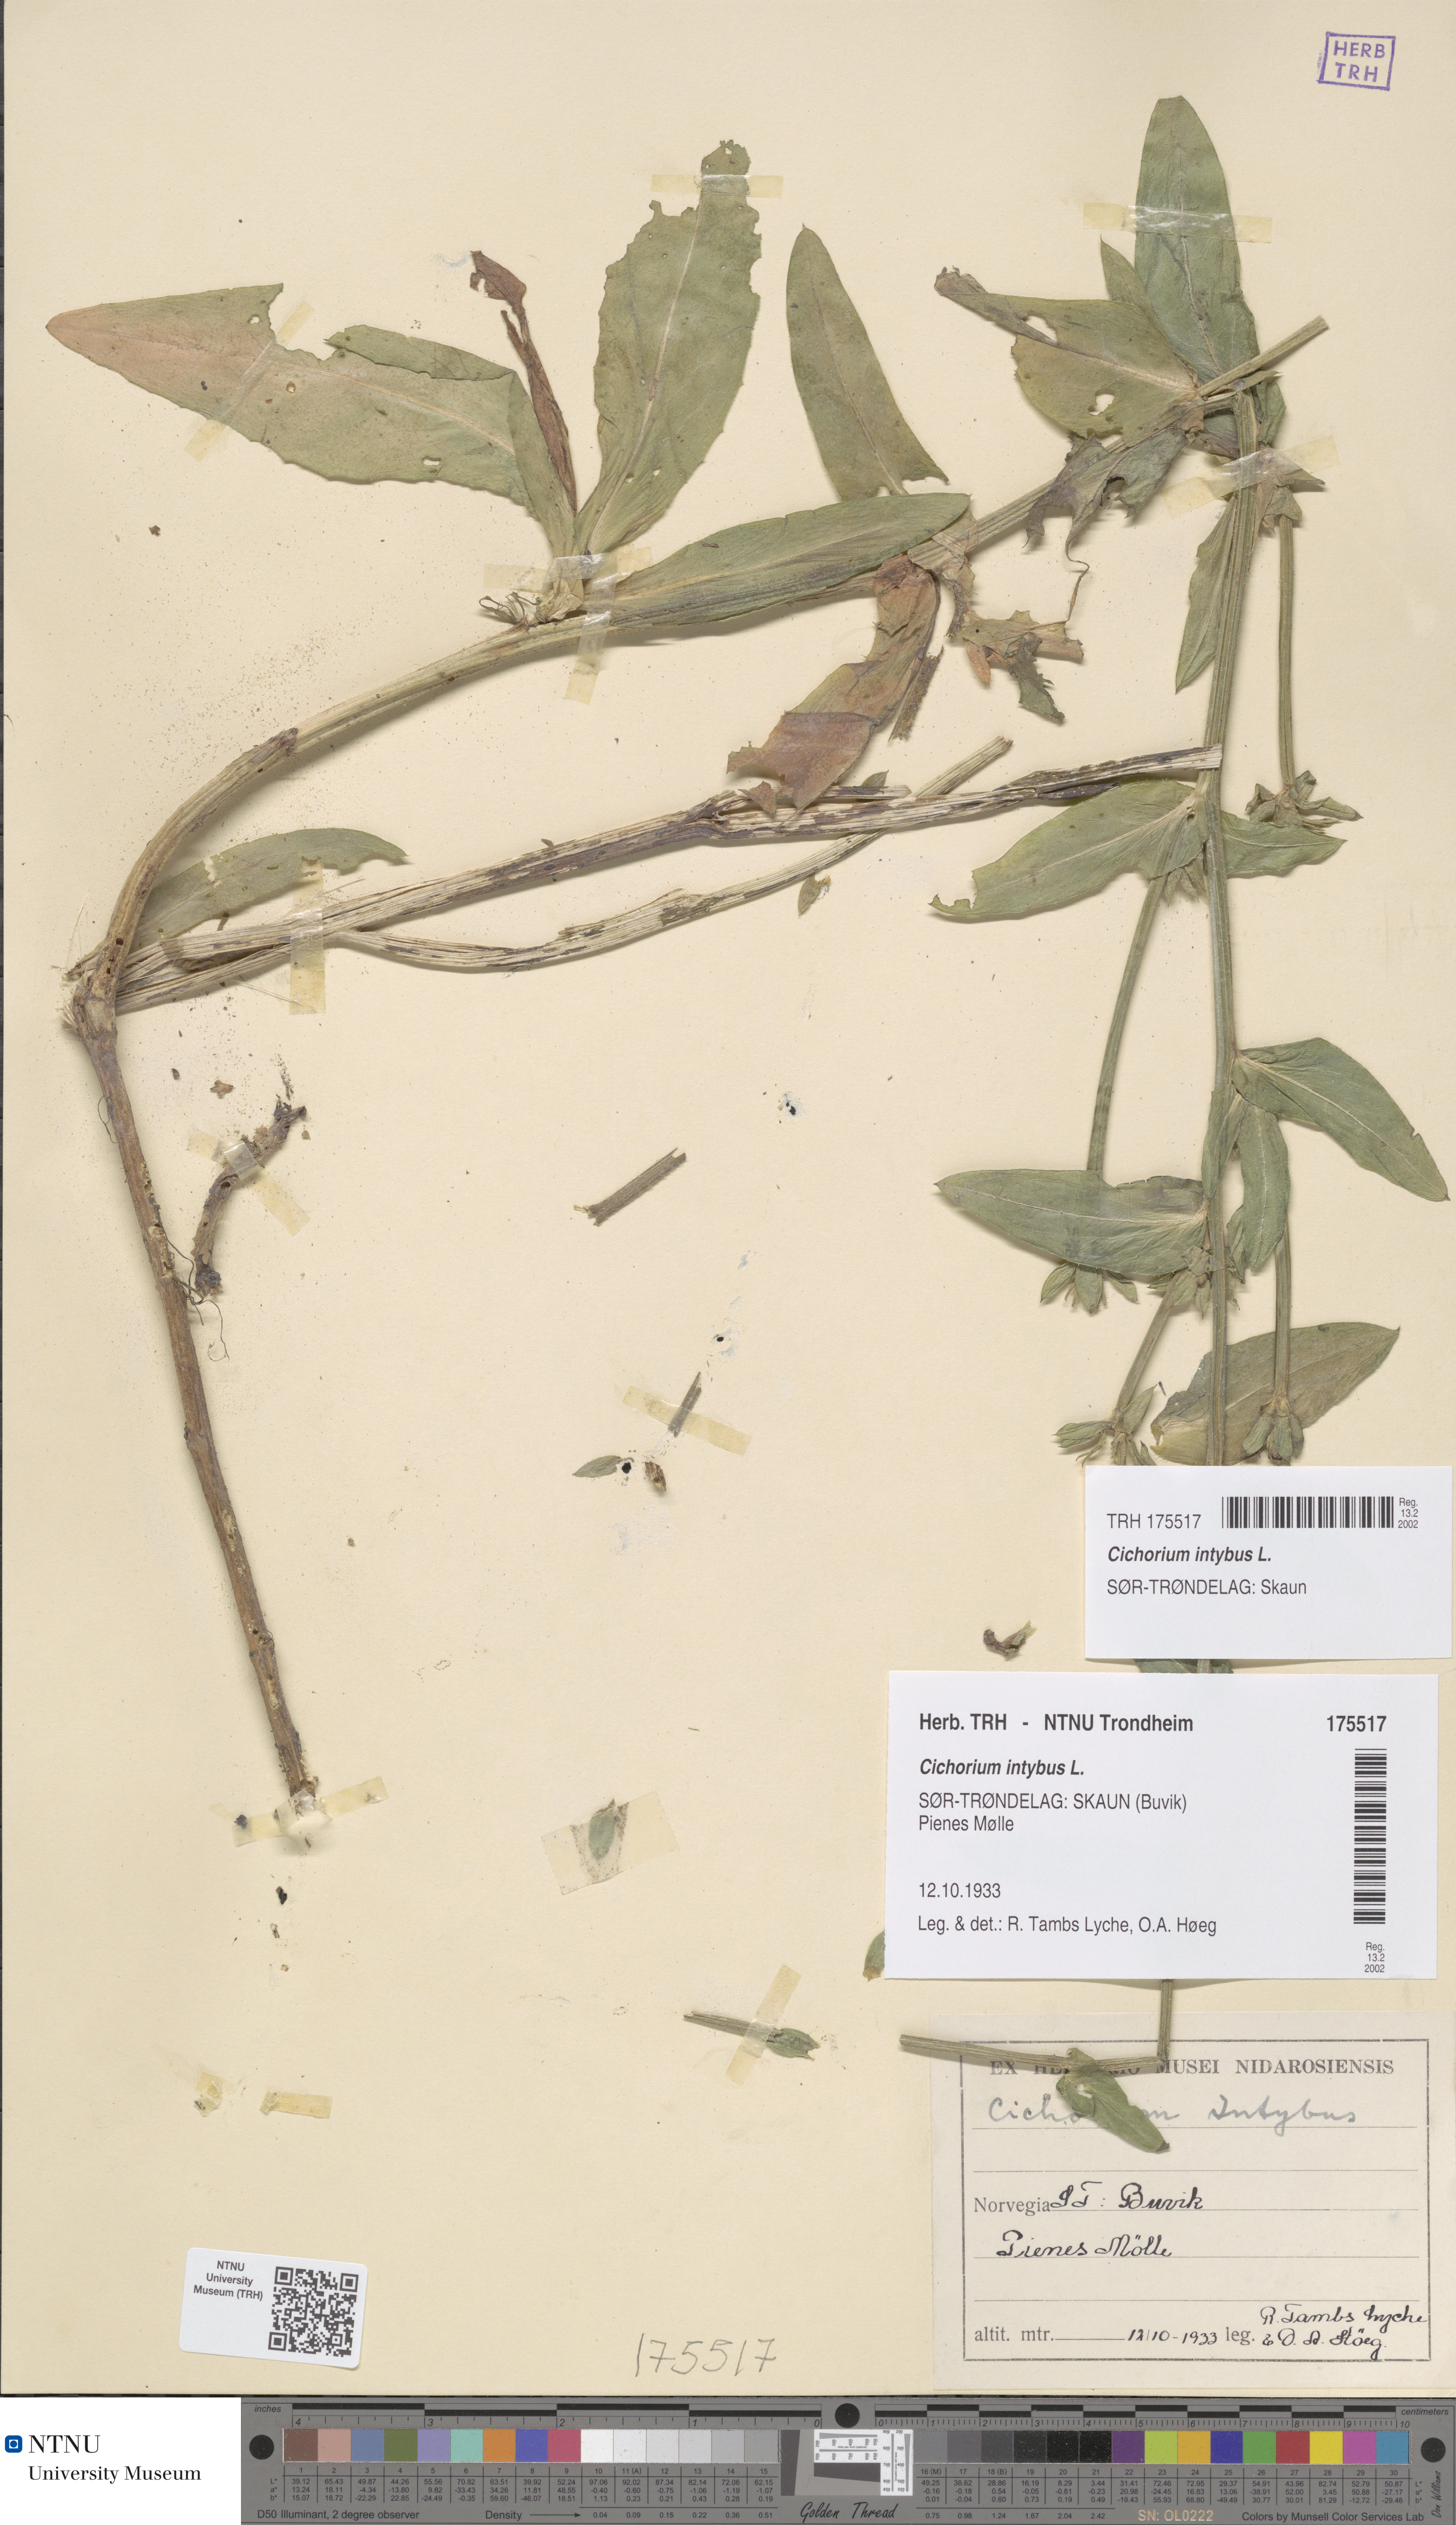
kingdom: Plantae
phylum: Tracheophyta
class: Magnoliopsida
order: Asterales
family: Asteraceae
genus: Cichorium
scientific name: Cichorium intybus
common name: Chicory
